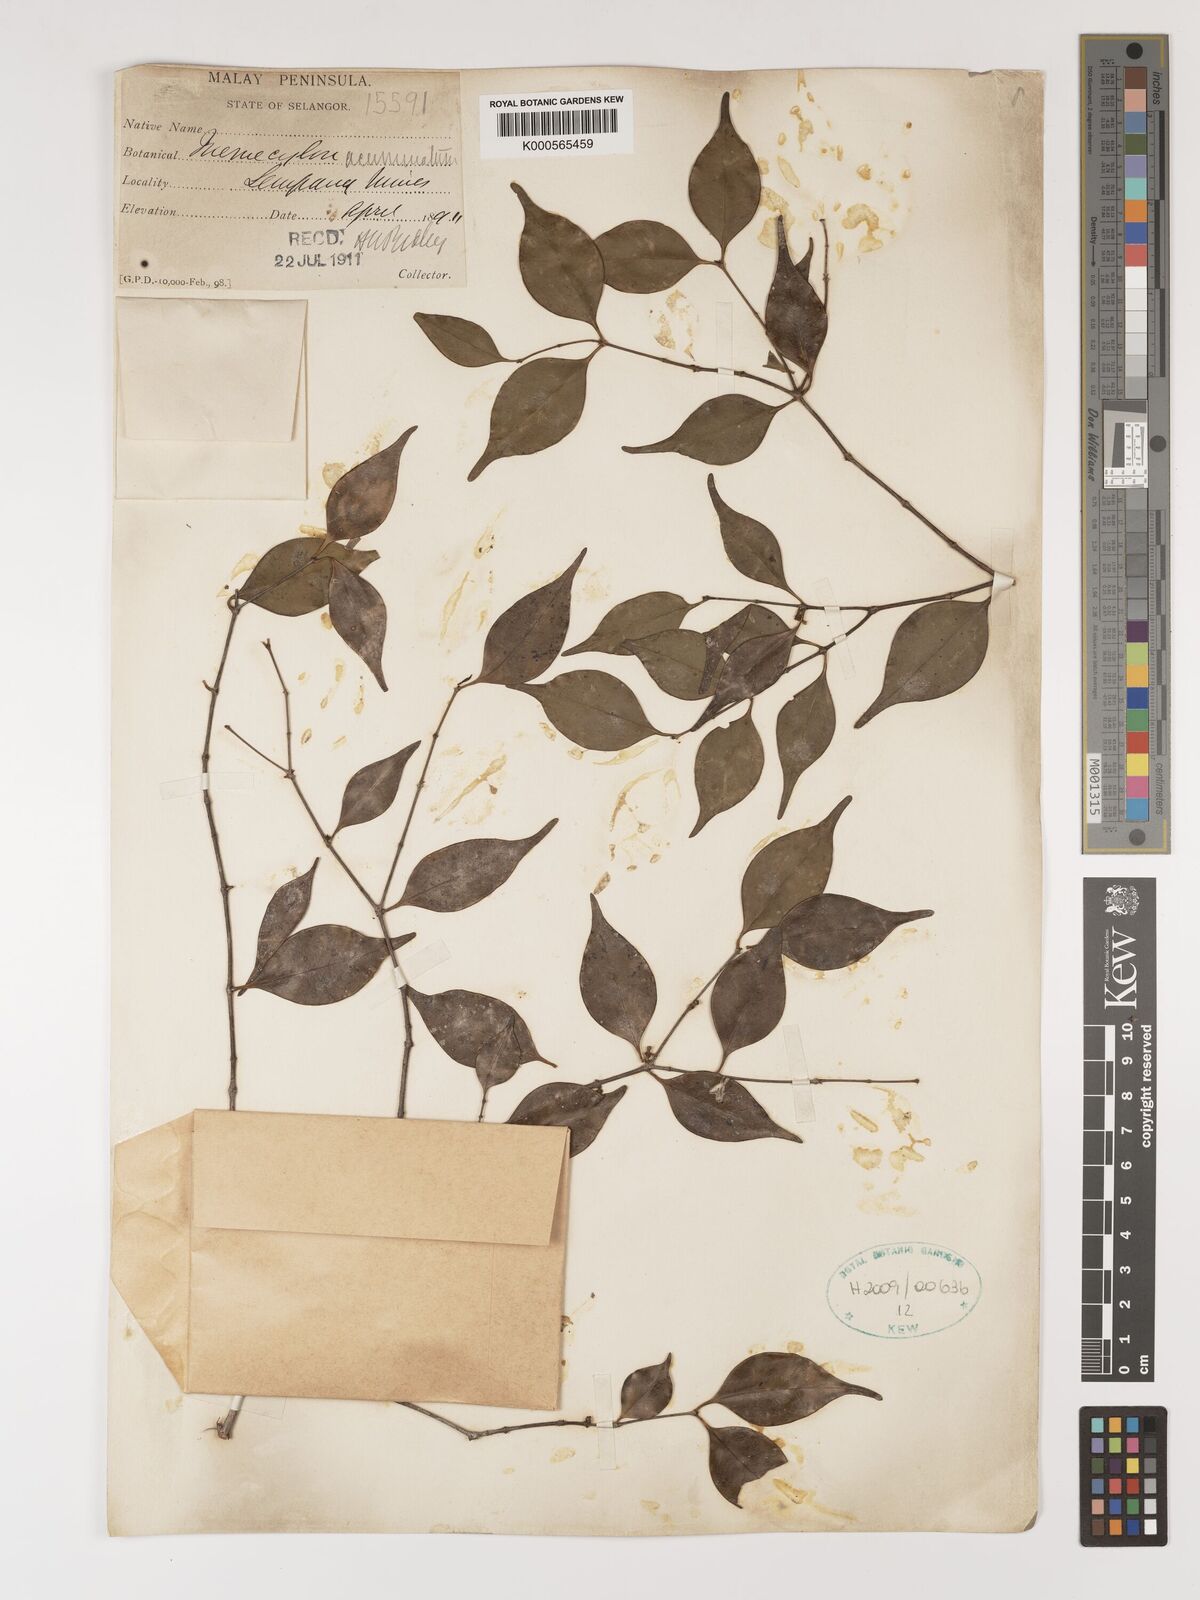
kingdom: Plantae
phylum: Tracheophyta
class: Magnoliopsida
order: Myrtales
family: Melastomataceae
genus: Memecylon
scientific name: Memecylon acuminatum
